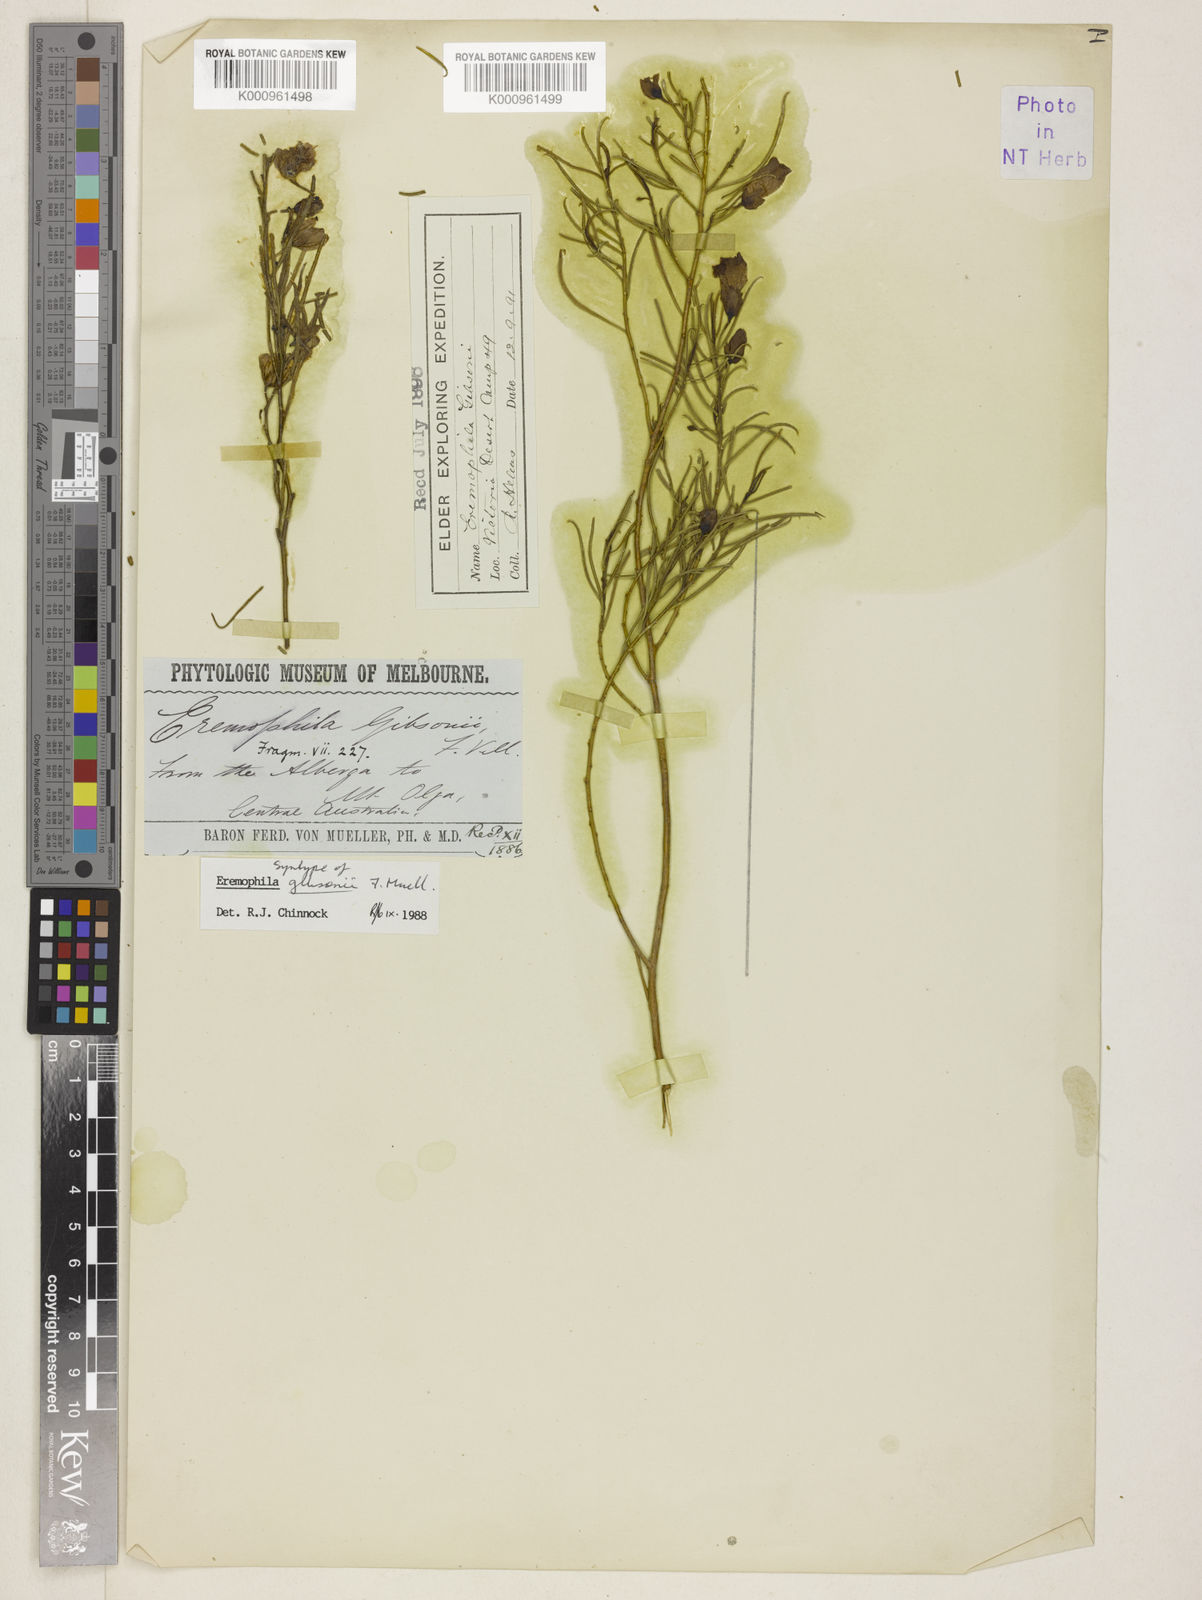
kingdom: Plantae
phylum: Tracheophyta
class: Magnoliopsida
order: Lamiales
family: Scrophulariaceae
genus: Eremophila
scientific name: Eremophila gibsonii
